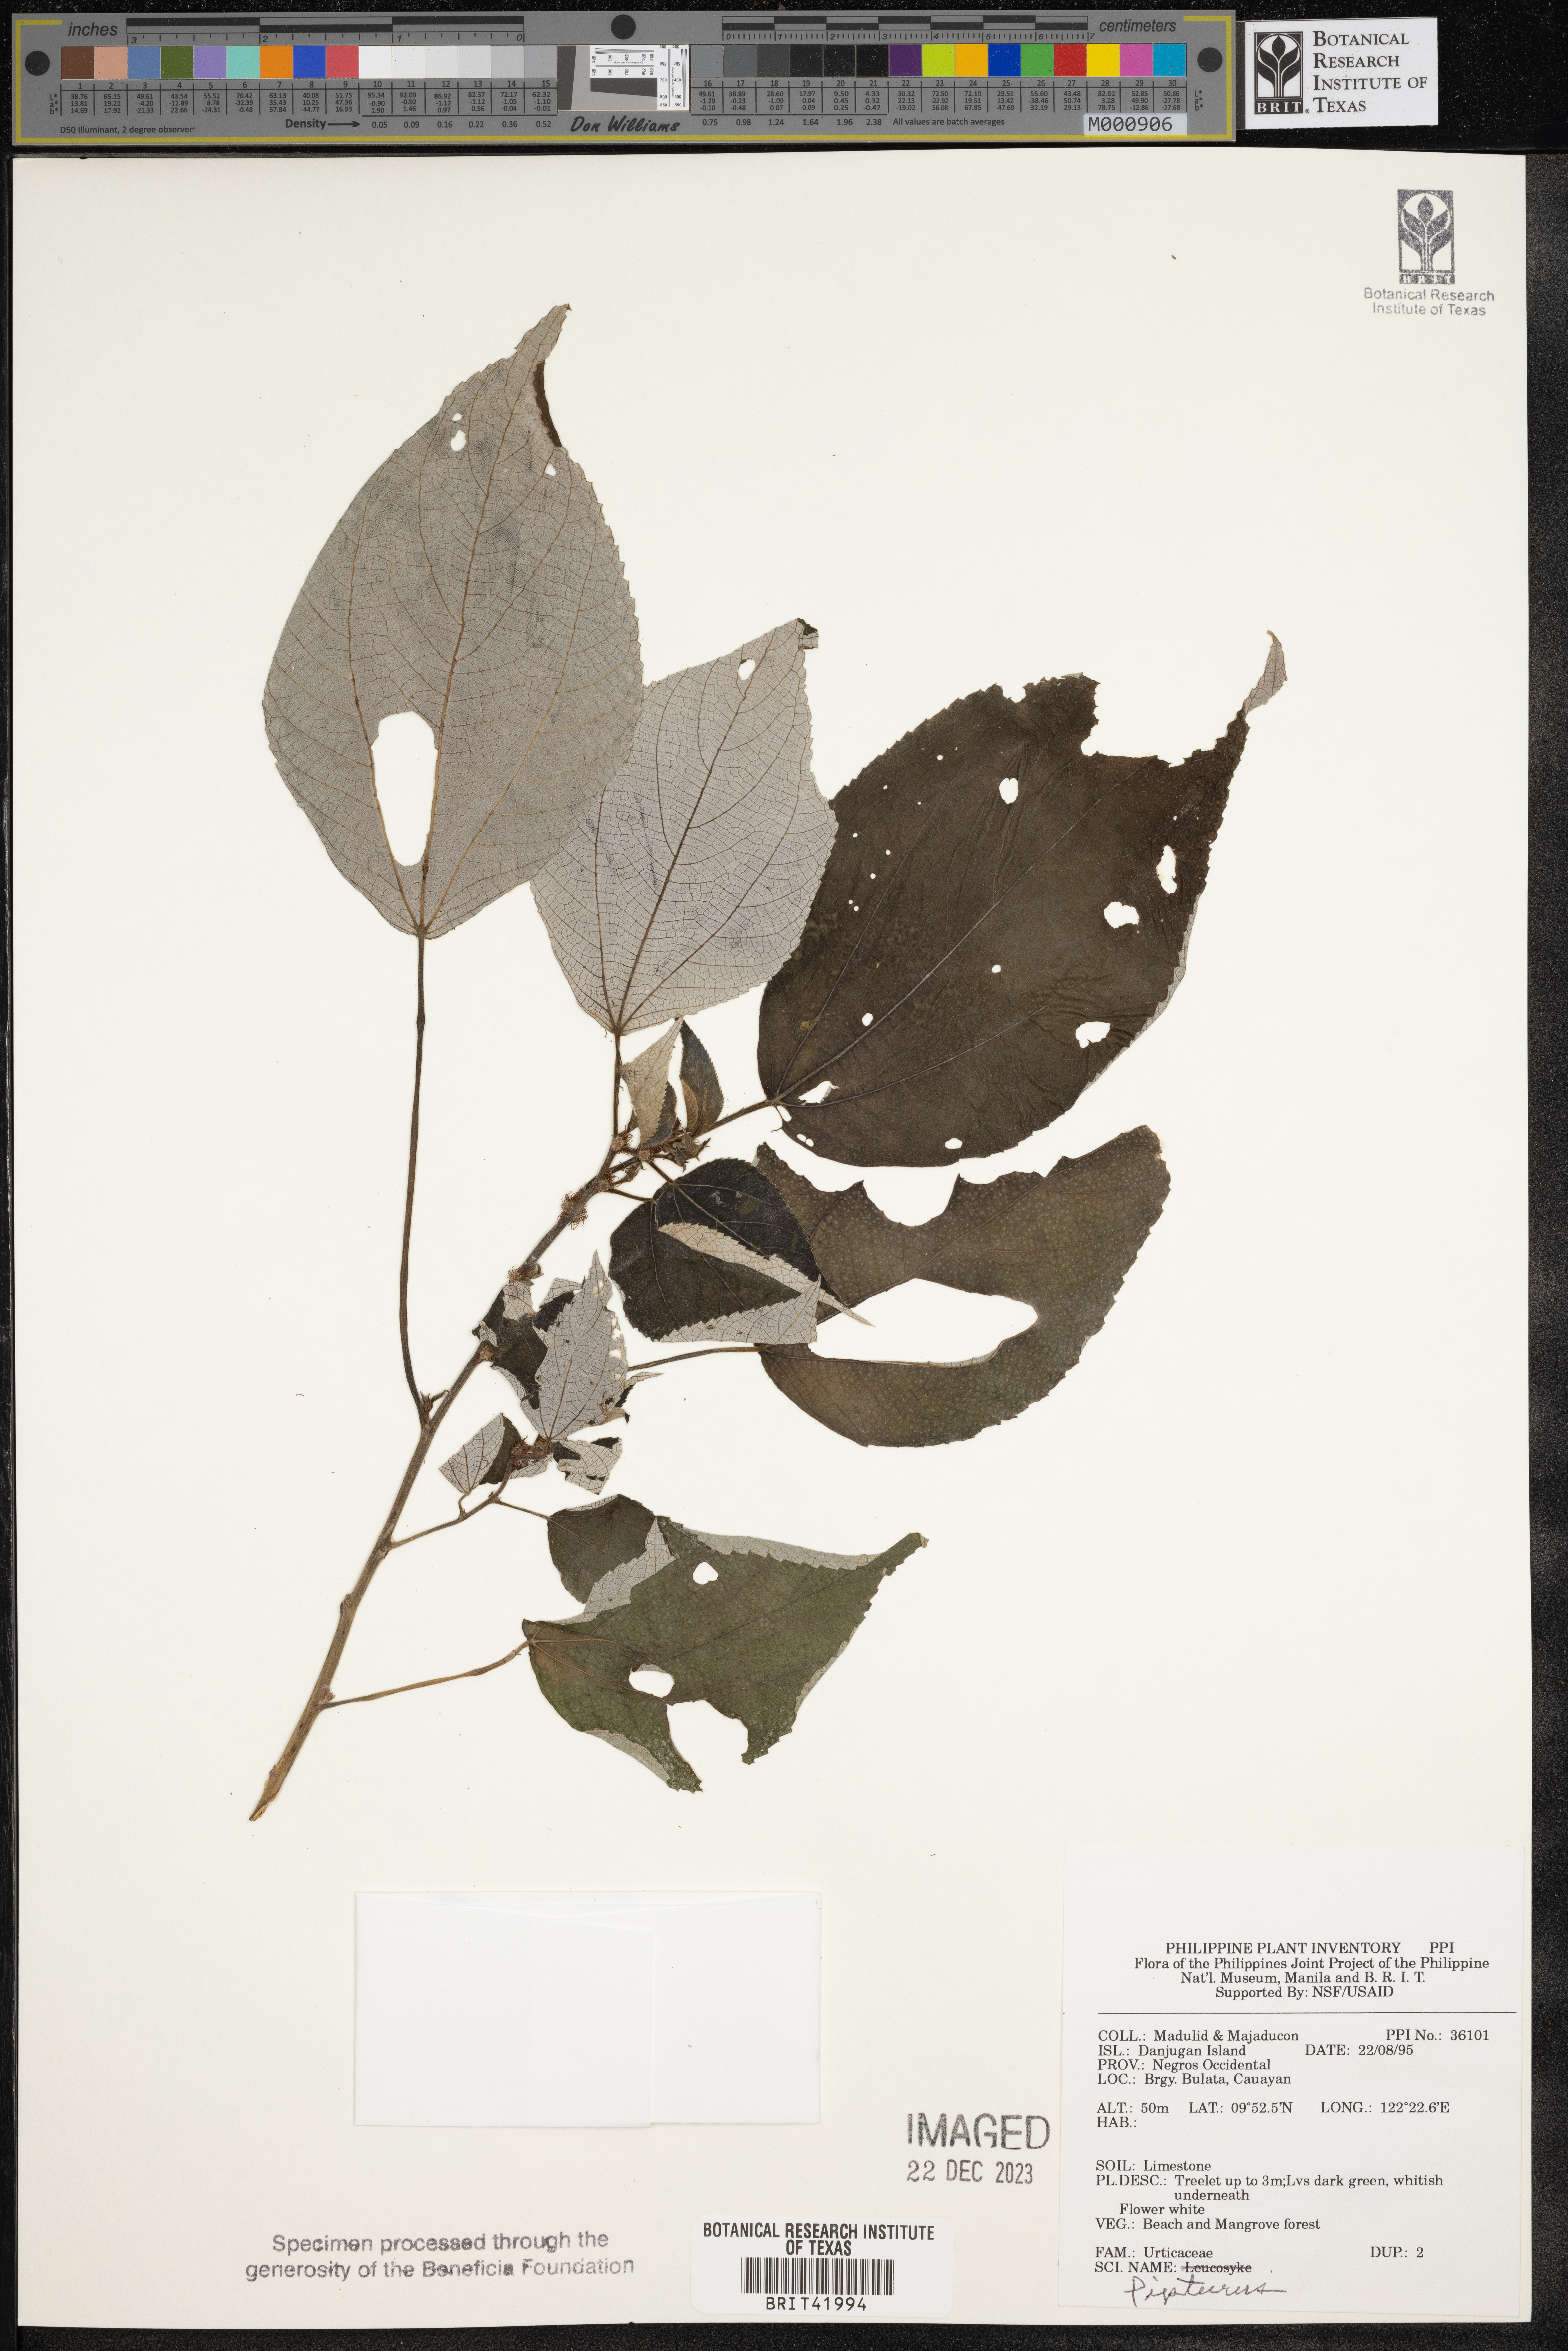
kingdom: Plantae
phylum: Tracheophyta
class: Magnoliopsida
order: Rosales
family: Urticaceae
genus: Pipturus
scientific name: Pipturus
